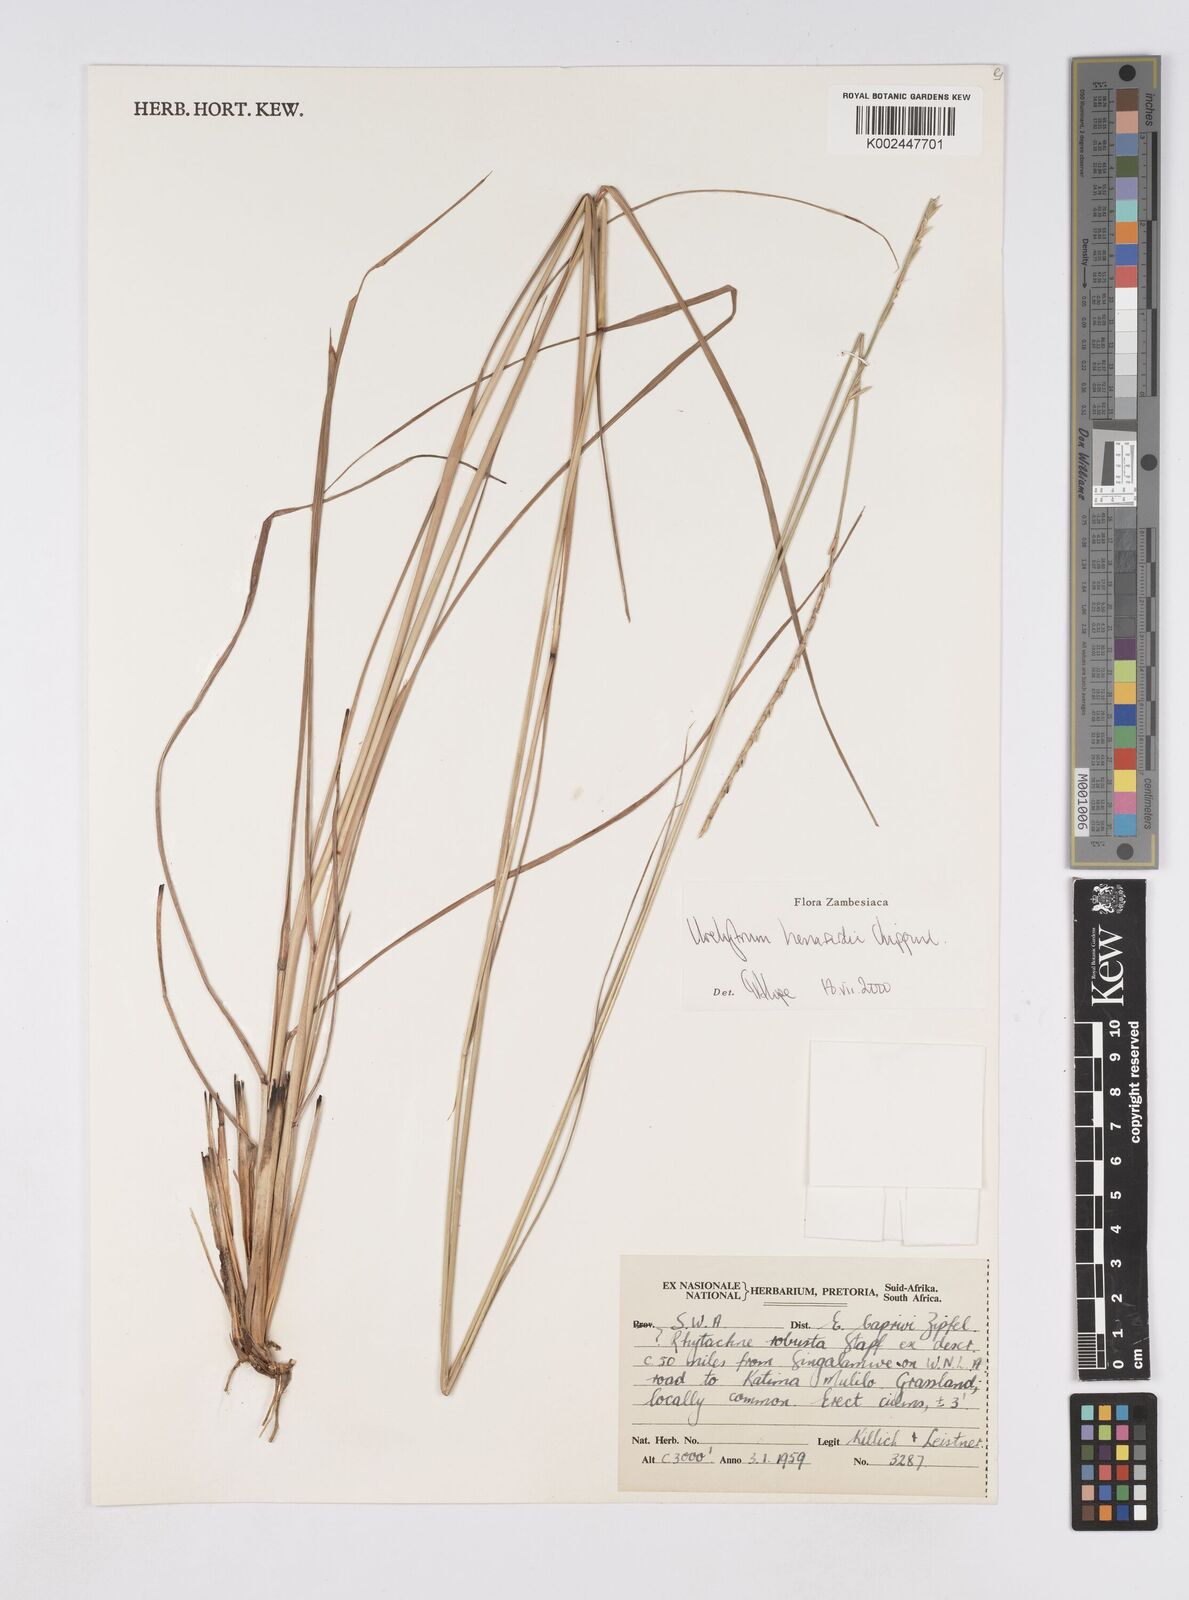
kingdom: Plantae
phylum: Tracheophyta
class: Liliopsida
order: Poales
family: Poaceae
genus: Urelytrum
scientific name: Urelytrum henrardii
